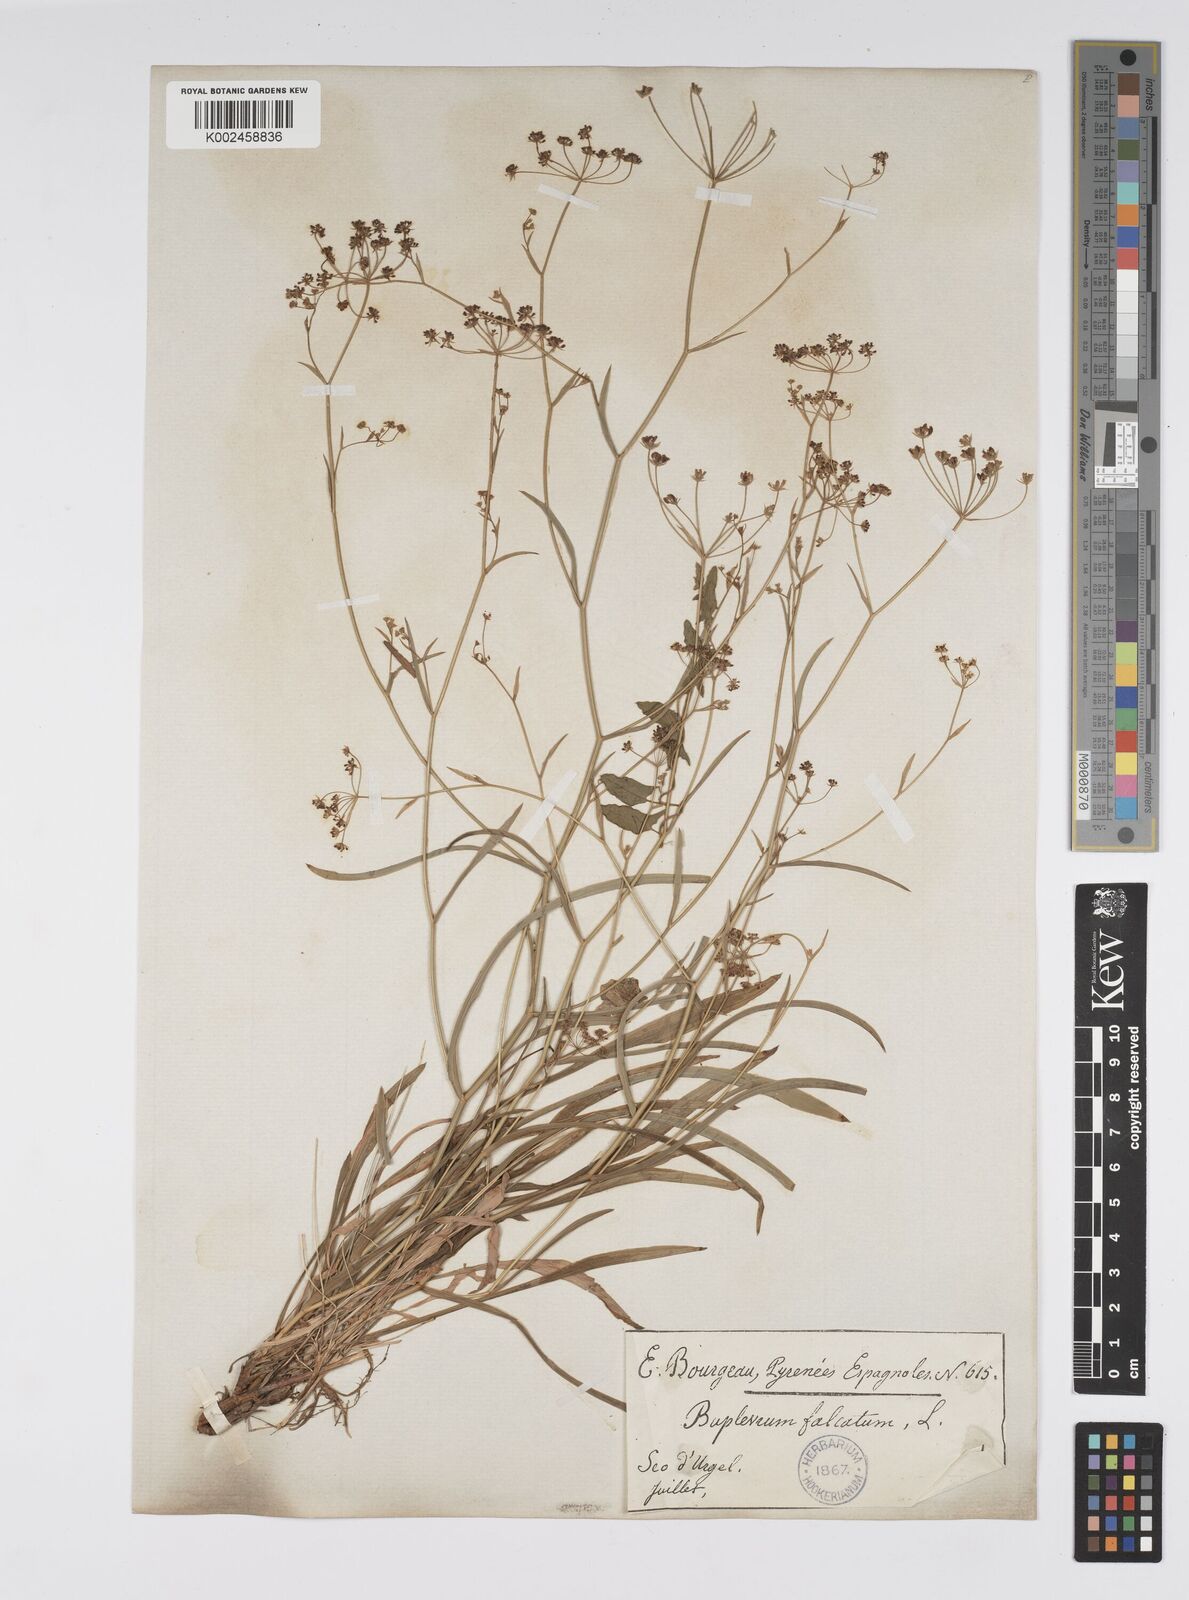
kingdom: Plantae
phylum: Tracheophyta
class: Magnoliopsida
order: Apiales
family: Apiaceae
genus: Bupleurum
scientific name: Bupleurum falcatum
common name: Sickle-leaved hare's-ear
